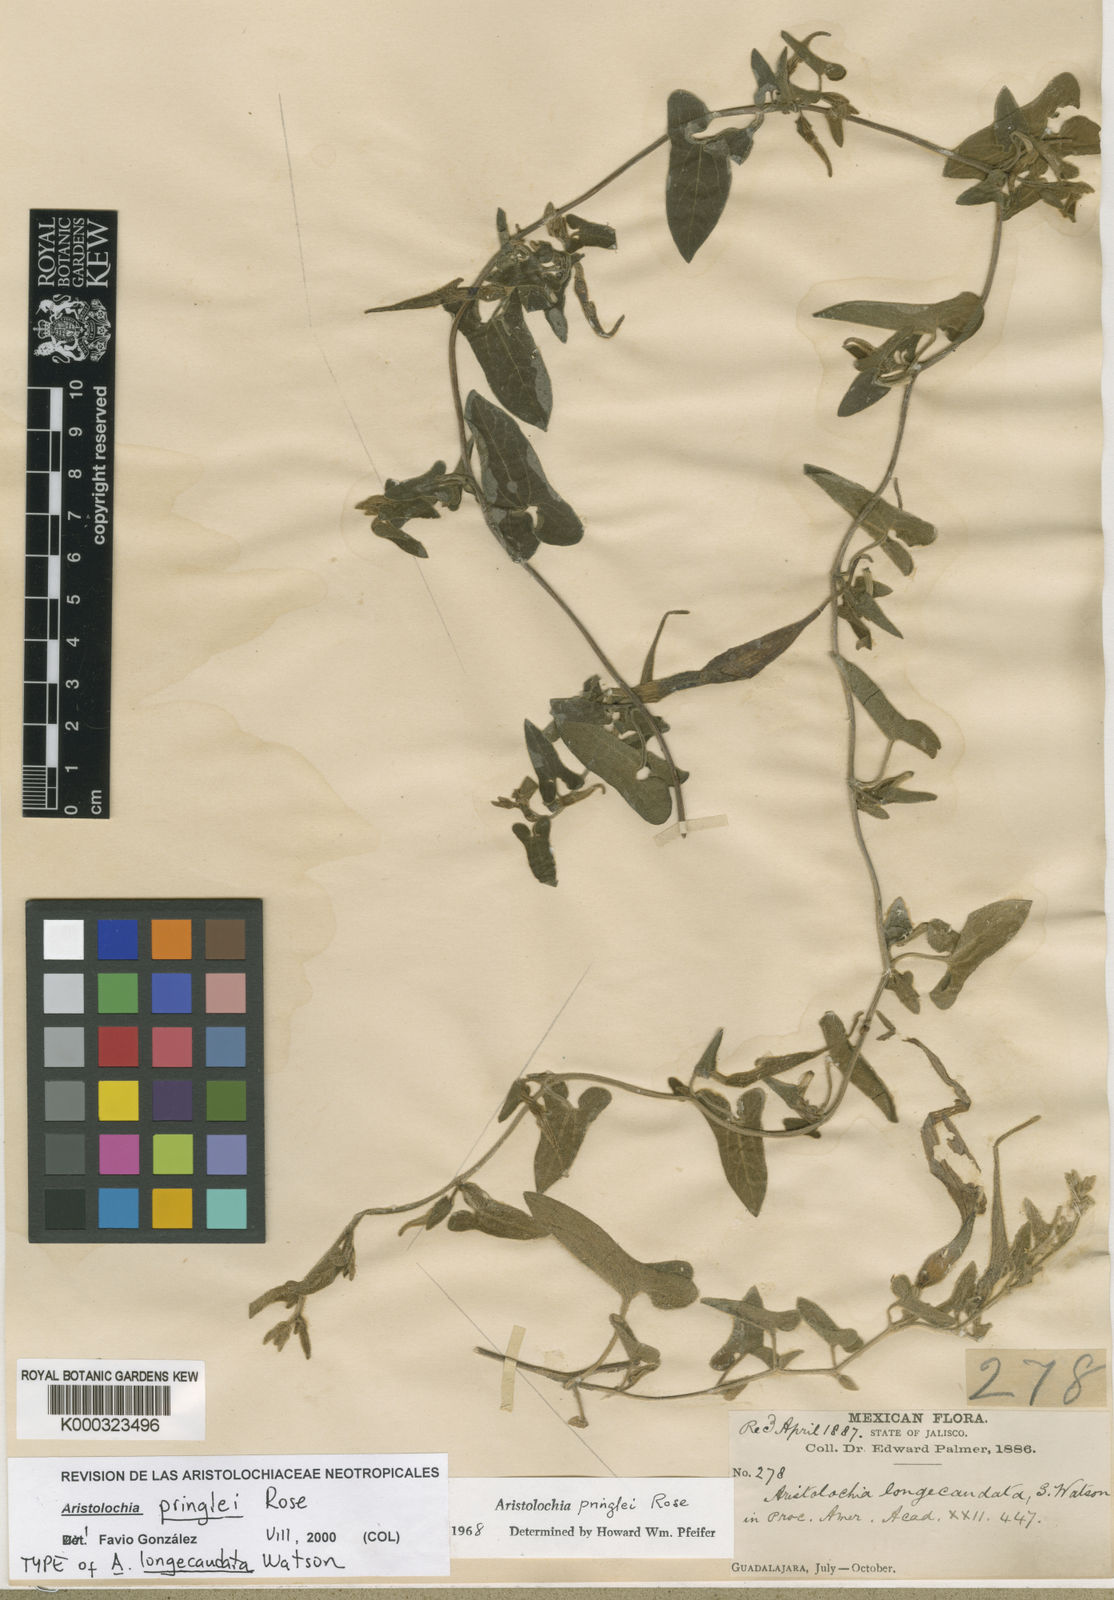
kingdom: Plantae
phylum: Tracheophyta
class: Magnoliopsida
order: Piperales
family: Aristolochiaceae
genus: Aristolochia
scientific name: Aristolochia pringlei
